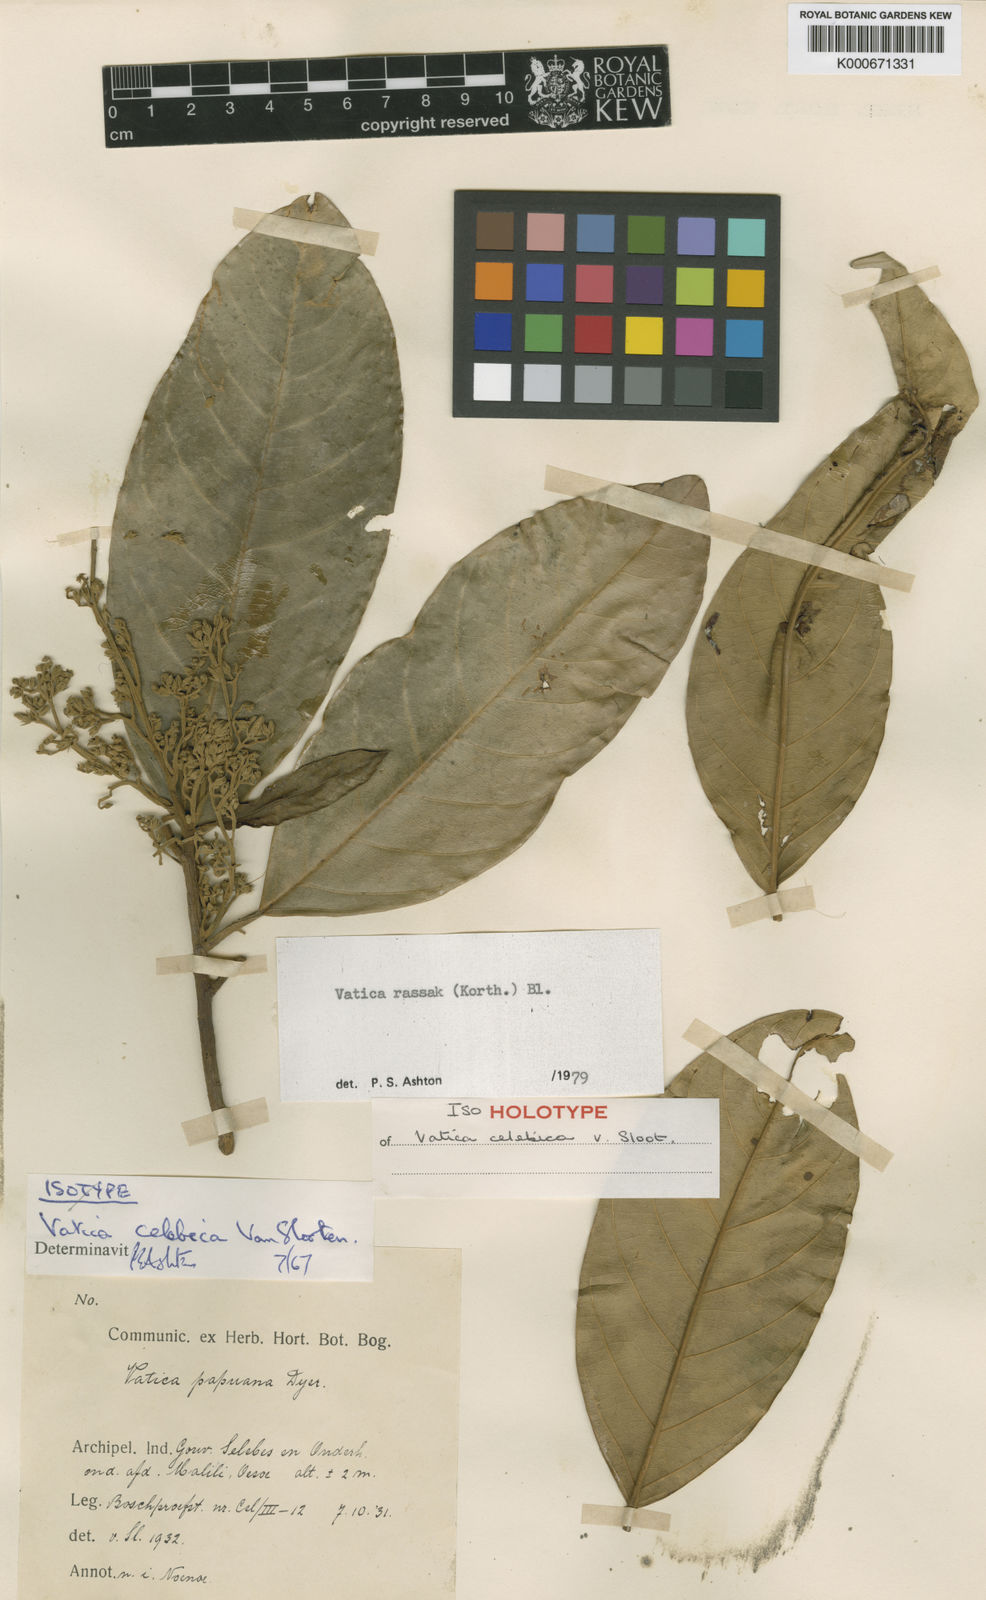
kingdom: Plantae
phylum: Tracheophyta
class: Magnoliopsida
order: Malvales
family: Dipterocarpaceae
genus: Vatica
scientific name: Vatica rassak
